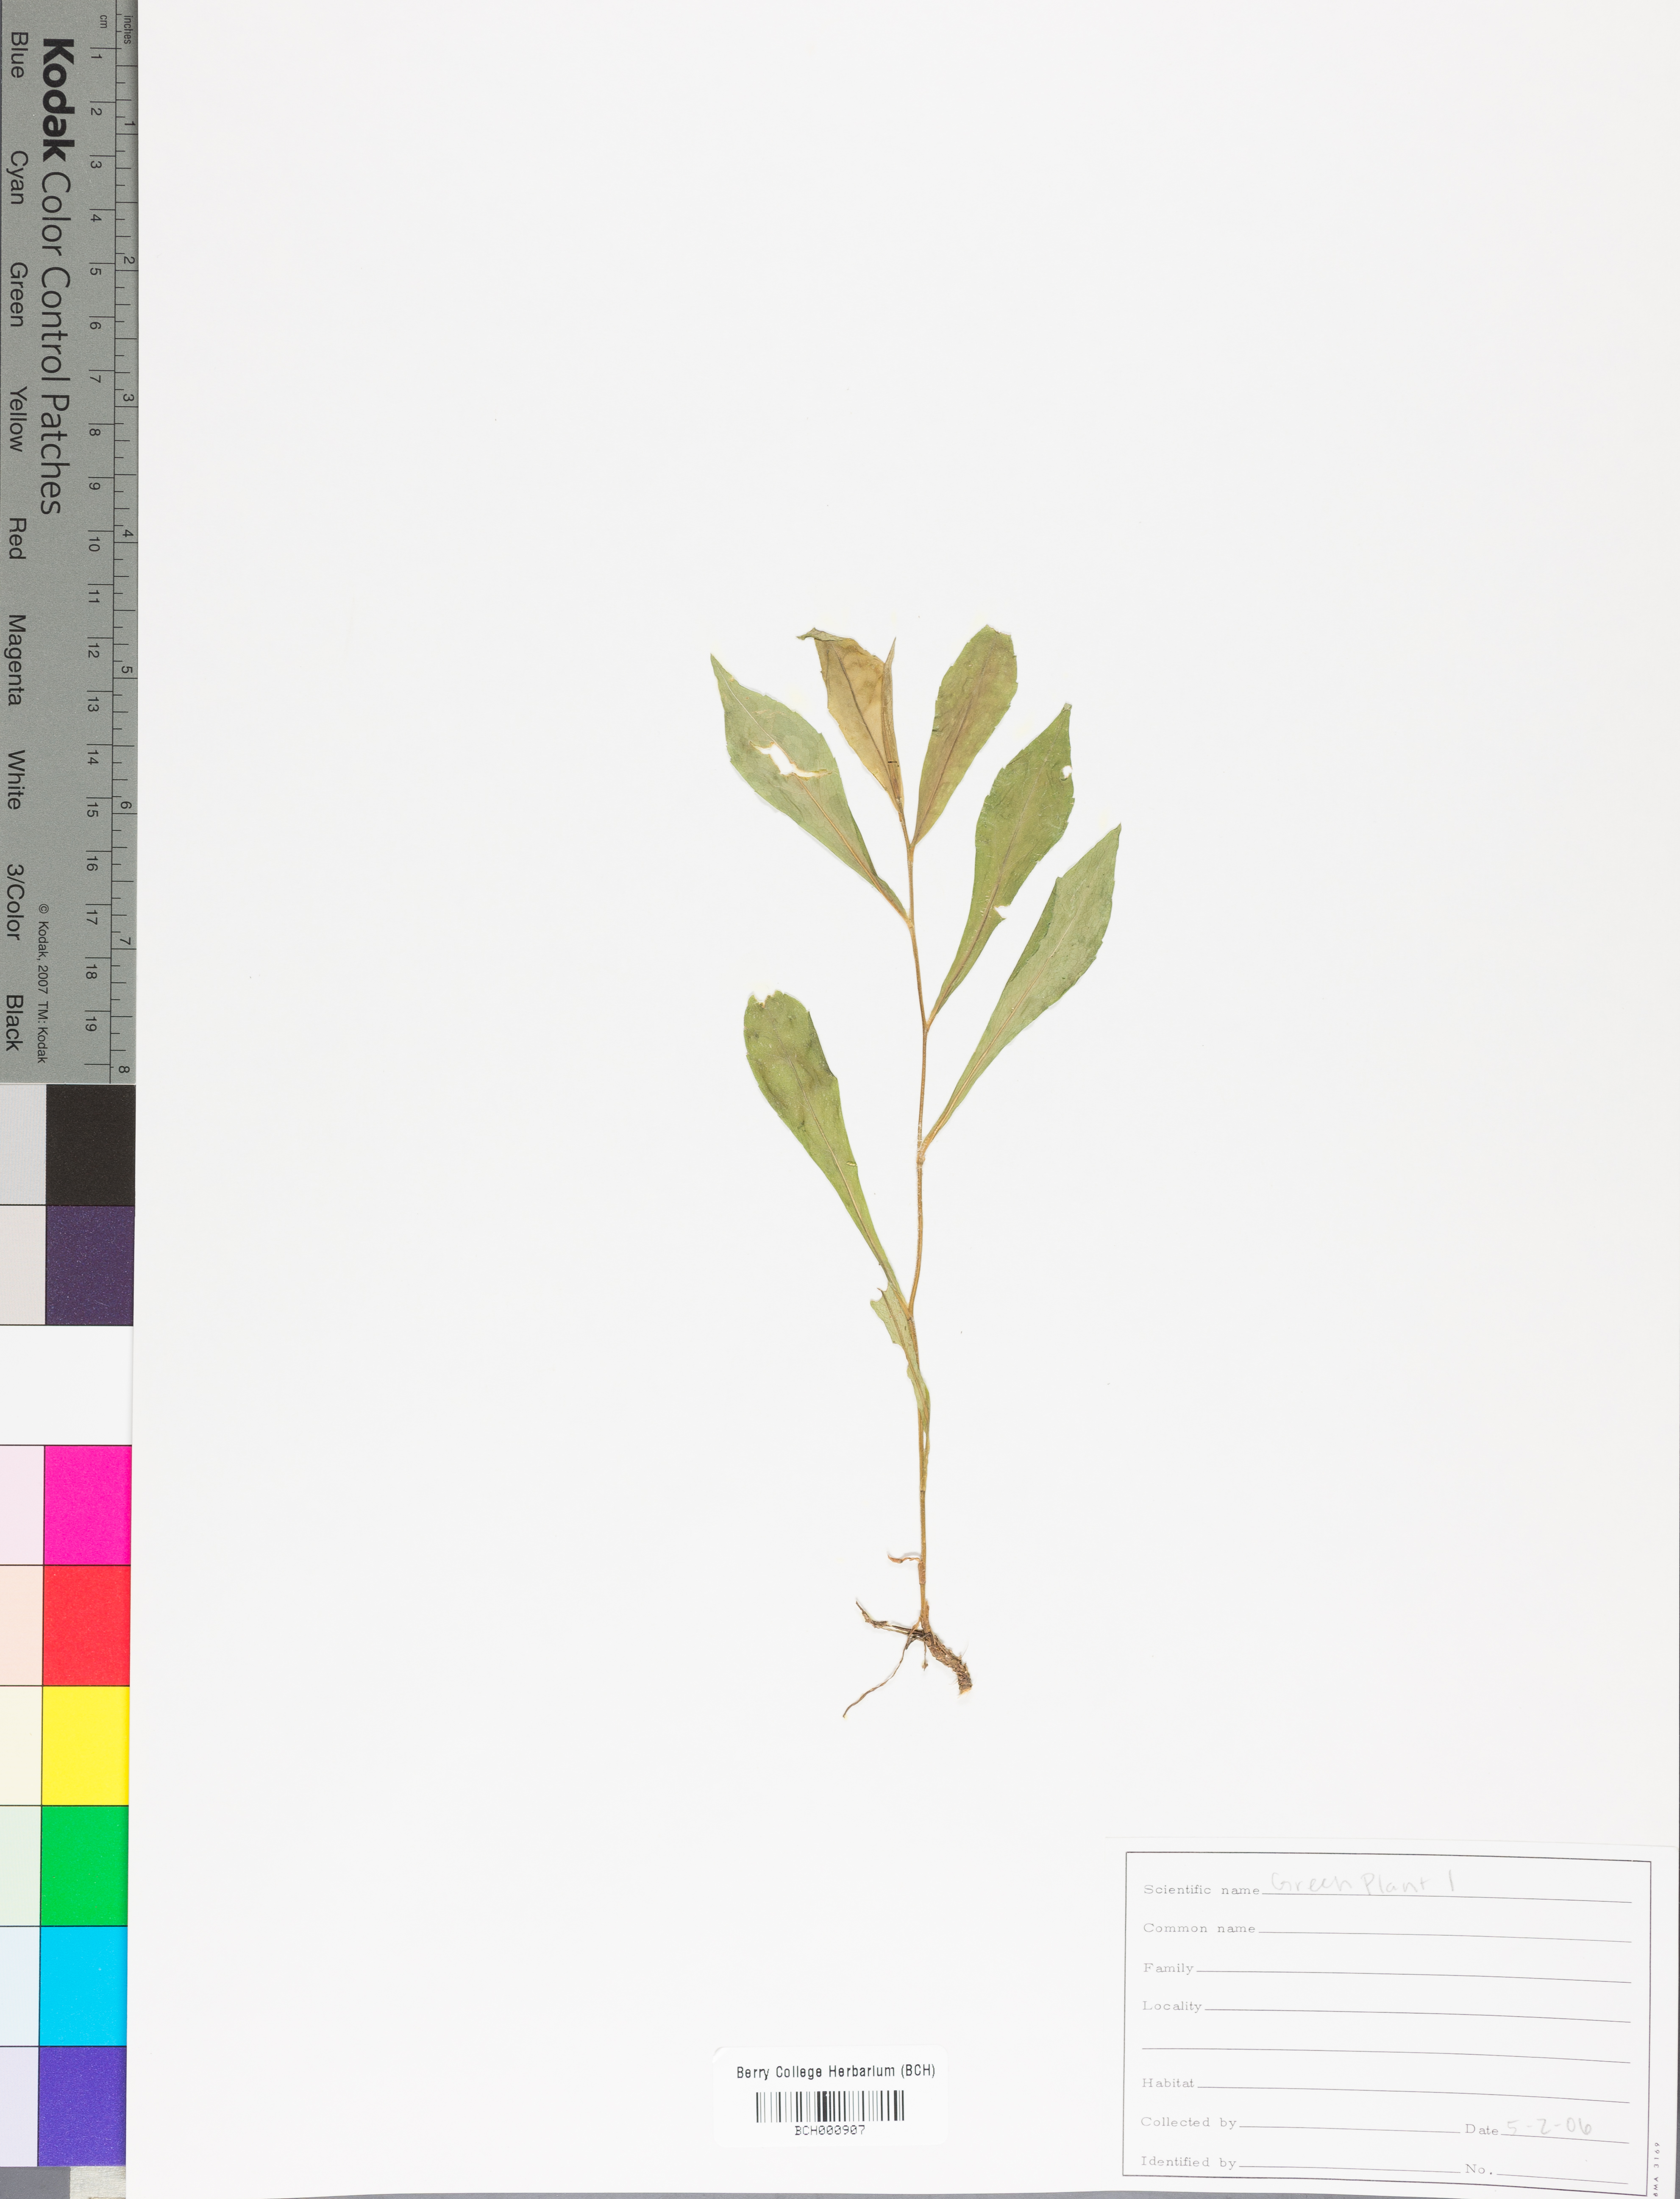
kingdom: Plantae
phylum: Tracheophyta
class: Magnoliopsida
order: Lamiales
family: Acanthaceae
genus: Adhatoda
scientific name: Adhatoda
